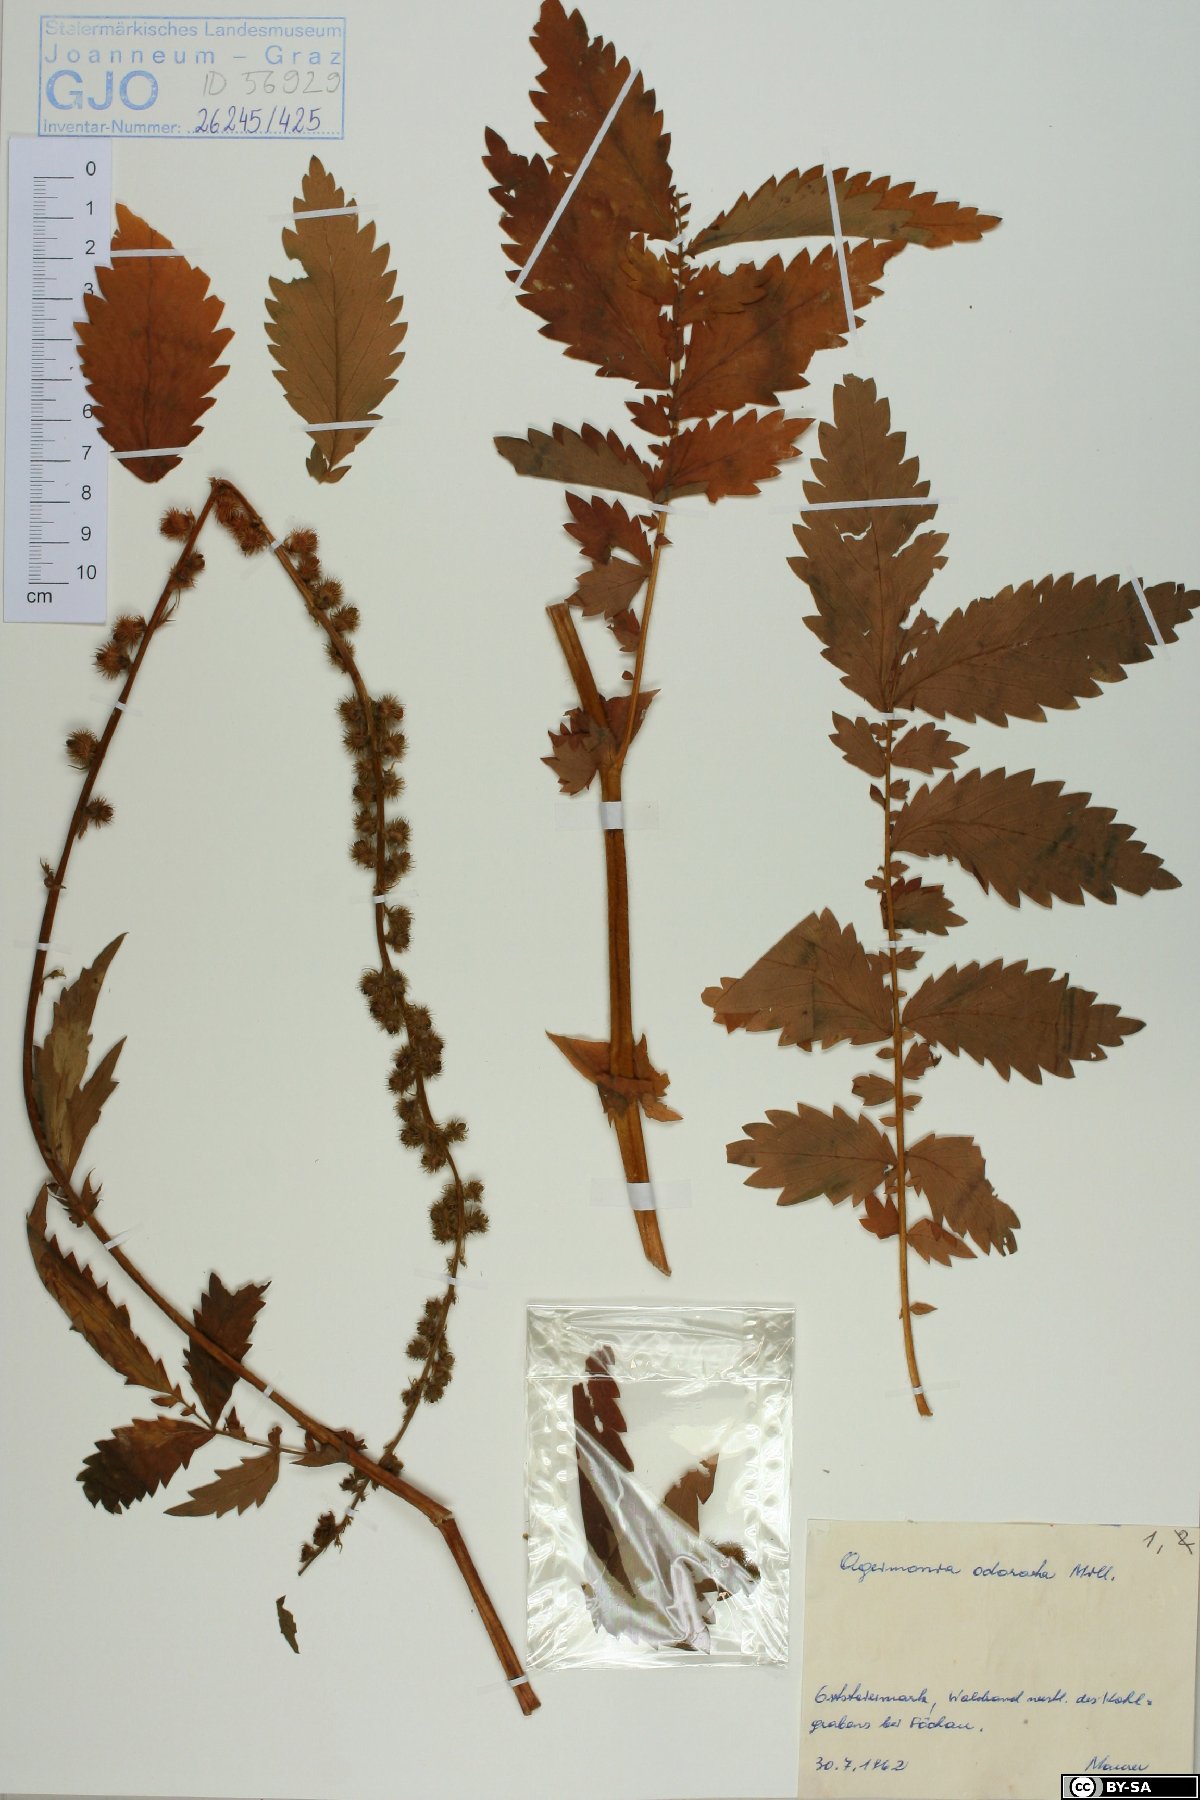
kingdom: Plantae
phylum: Tracheophyta
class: Magnoliopsida
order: Rosales
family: Rosaceae
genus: Agrimonia
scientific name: Agrimonia repens
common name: Creeping agrimony
